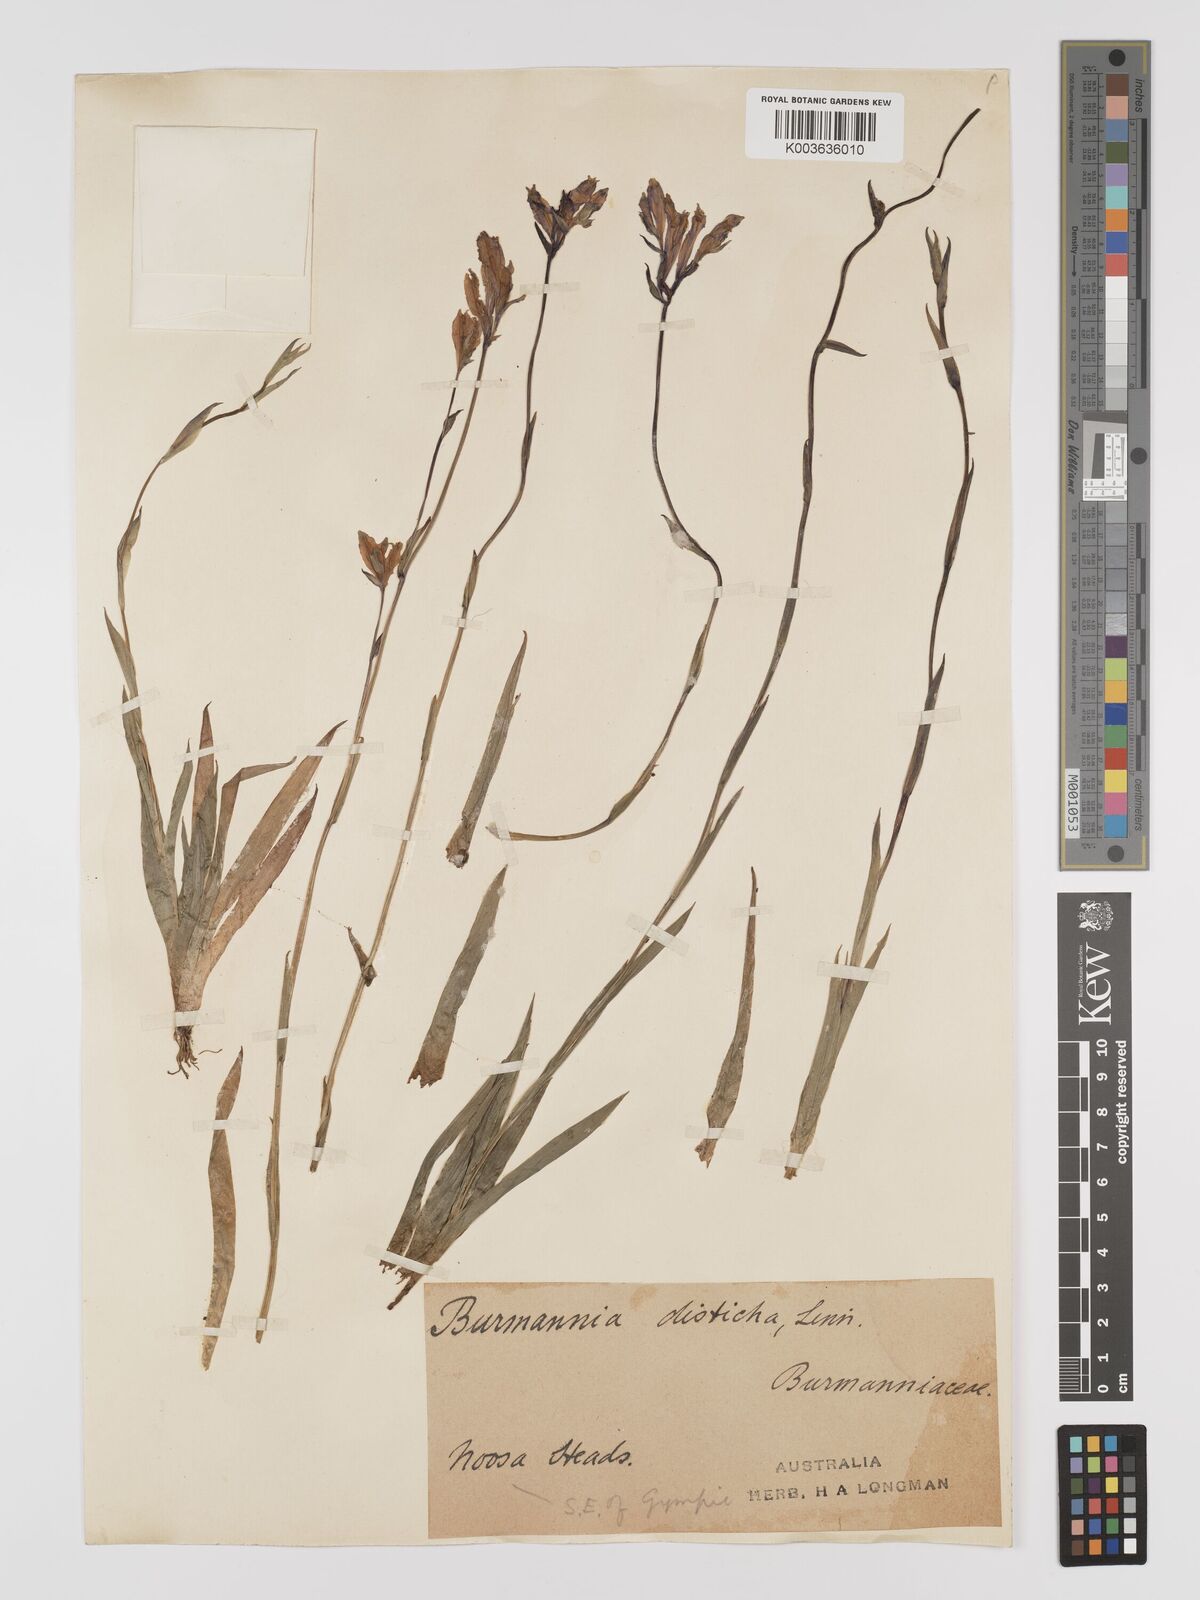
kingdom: Plantae
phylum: Tracheophyta
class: Liliopsida
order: Dioscoreales
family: Burmanniaceae
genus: Burmannia
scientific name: Burmannia disticha
